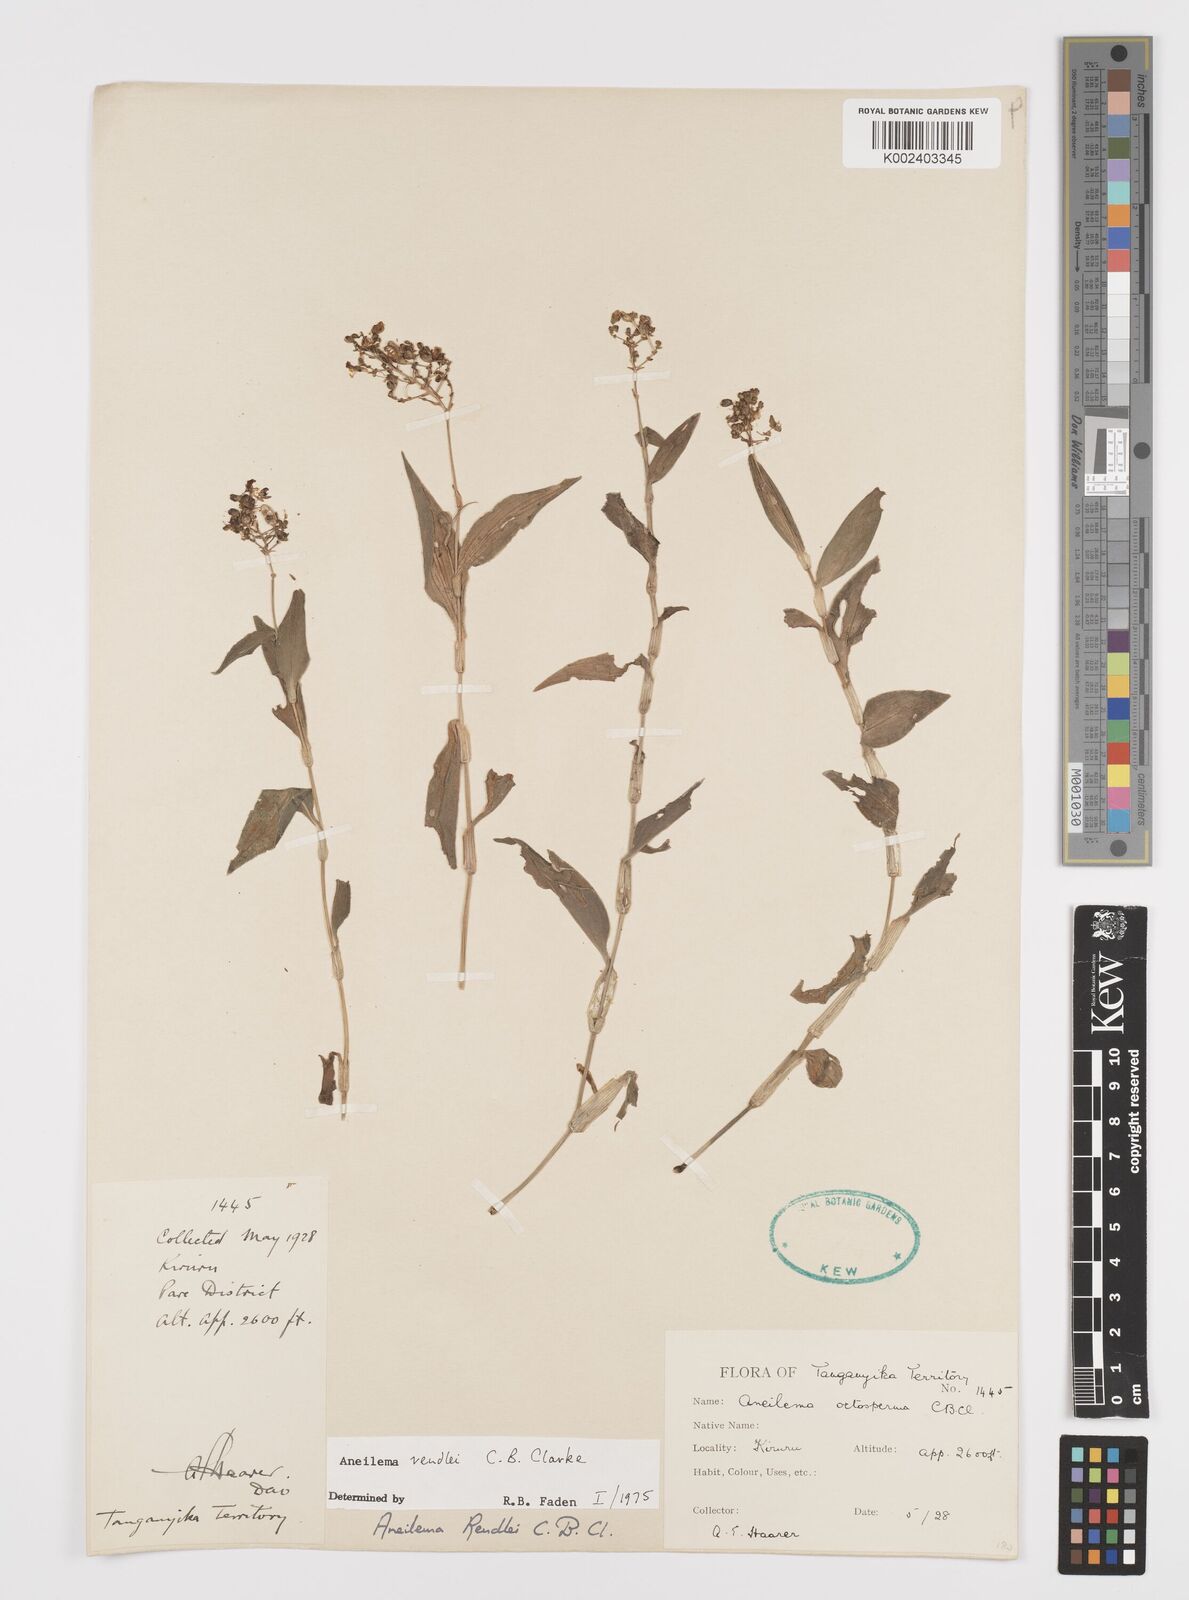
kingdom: Plantae
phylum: Tracheophyta
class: Liliopsida
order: Commelinales
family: Commelinaceae
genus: Aneilema
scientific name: Aneilema rendlei
